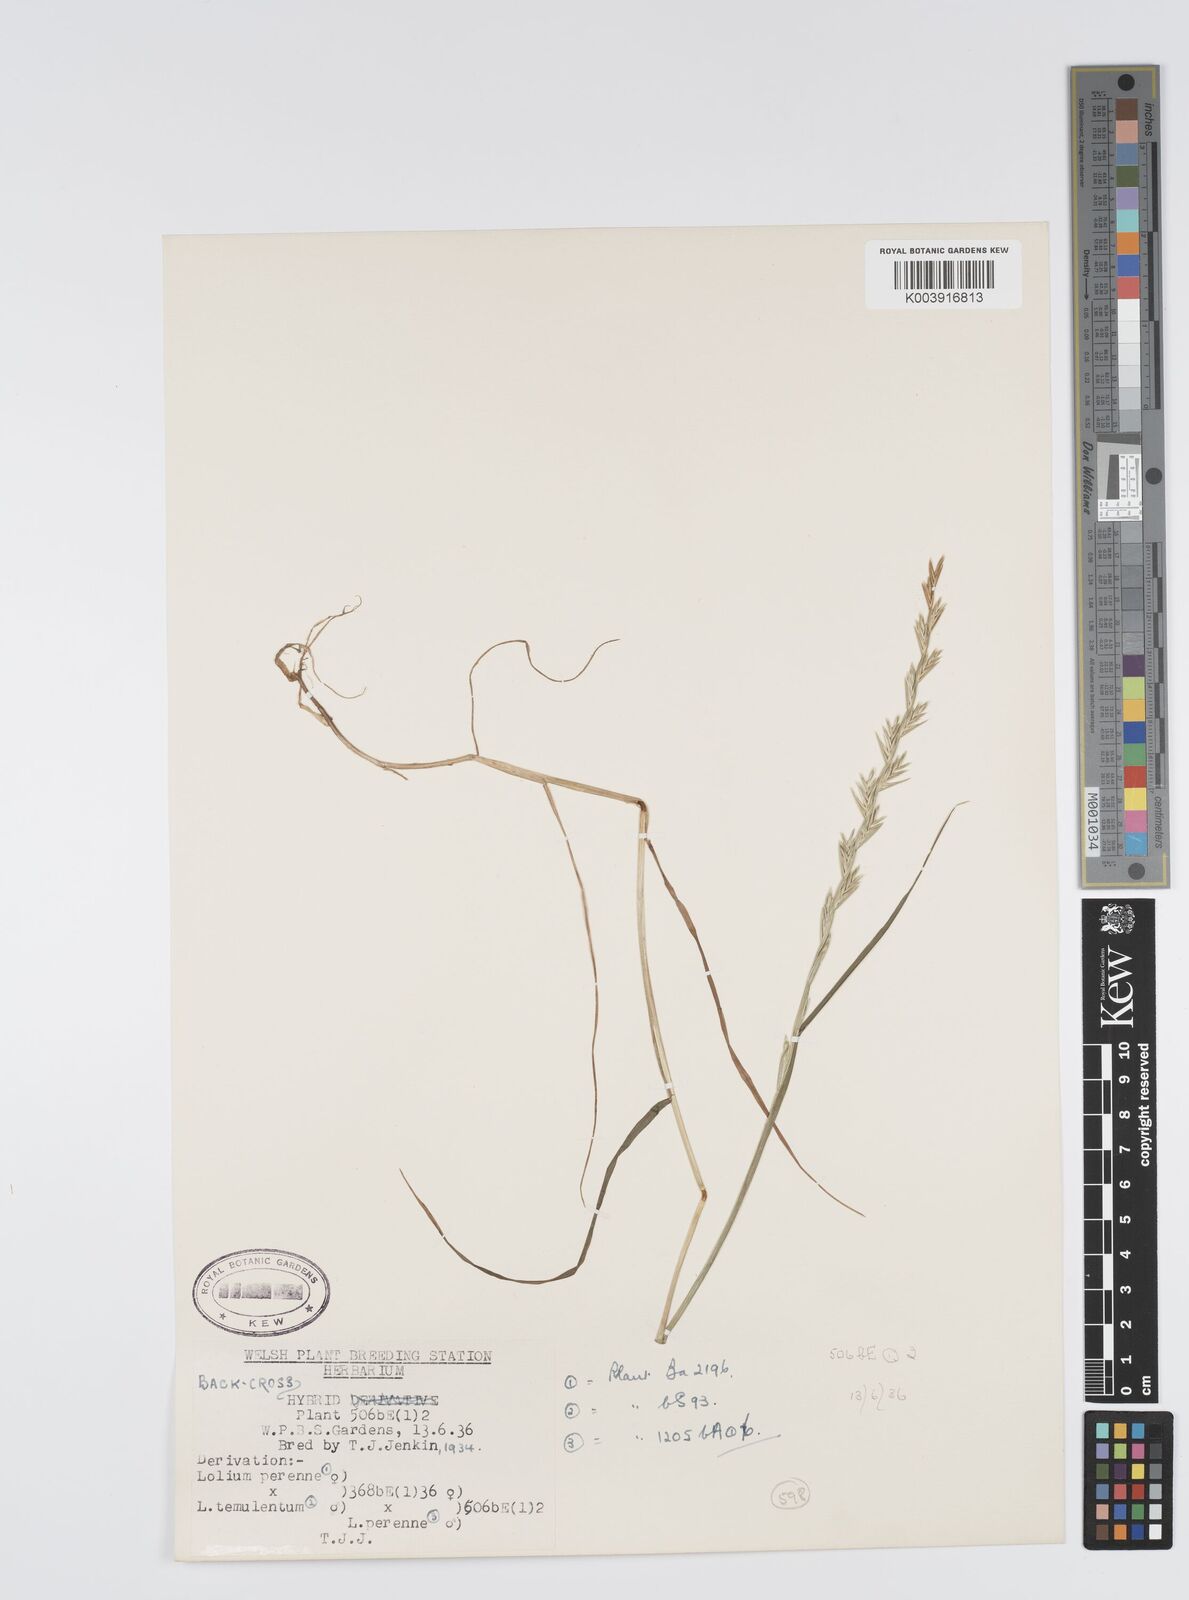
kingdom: Plantae
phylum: Tracheophyta
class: Liliopsida
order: Poales
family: Poaceae
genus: Lolium
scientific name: Lolium perenne
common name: Perennial ryegrass
